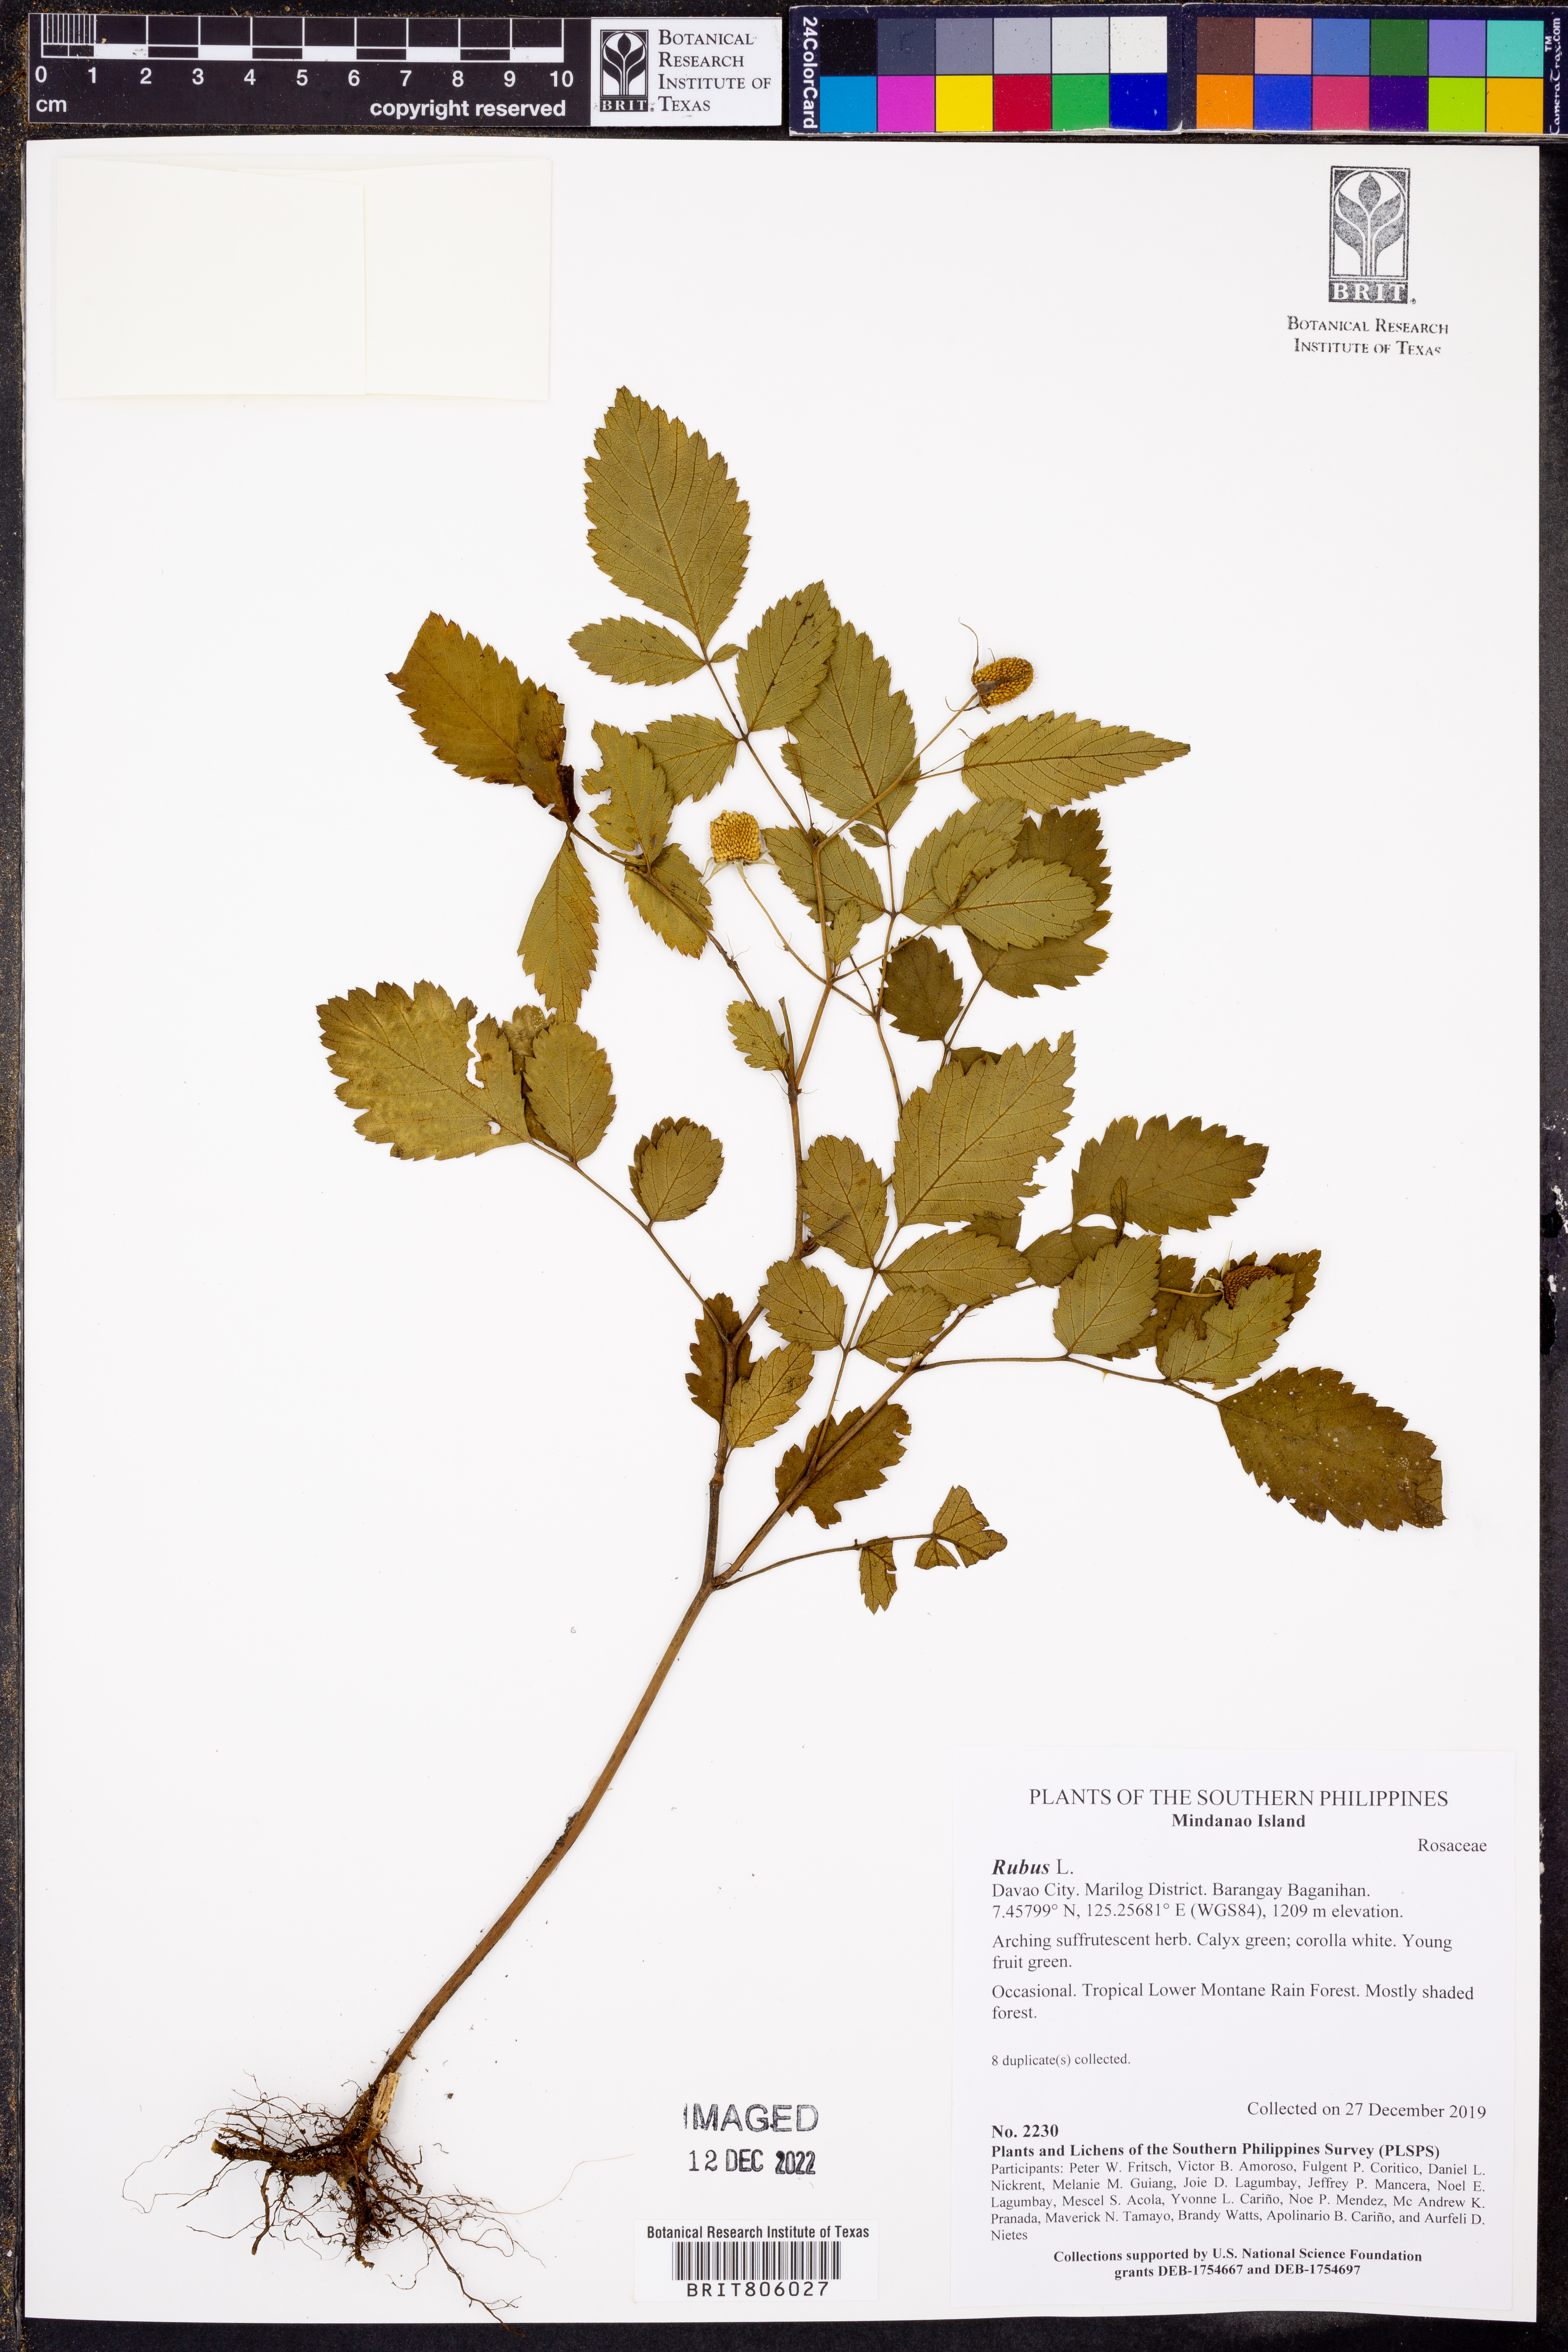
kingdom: Plantae
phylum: Tracheophyta
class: Magnoliopsida
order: Rosales
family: Rosaceae
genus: Rubus
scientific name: Rubus
